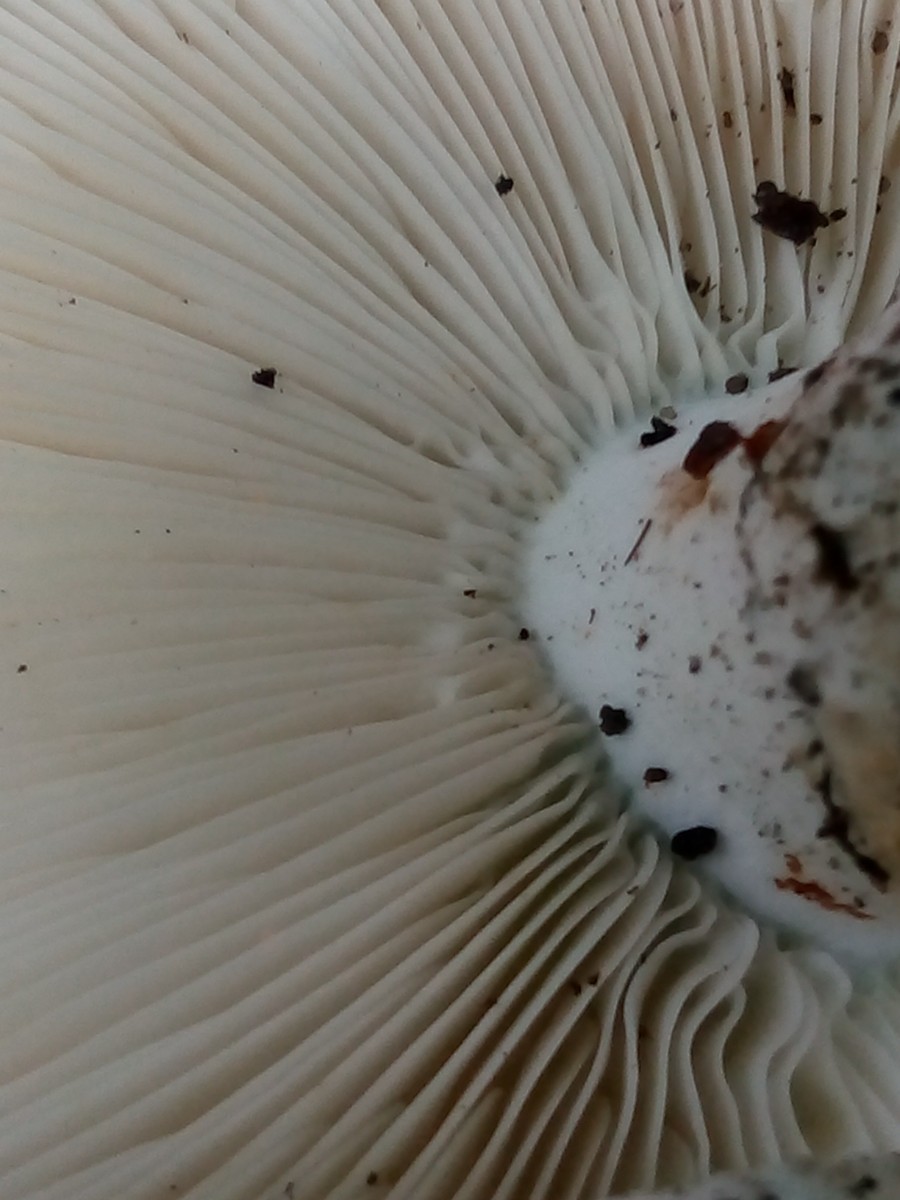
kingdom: Fungi
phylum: Basidiomycota
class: Agaricomycetes
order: Russulales
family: Russulaceae
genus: Russula
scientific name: Russula chloroides
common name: grønhalset tragt-skørhat
